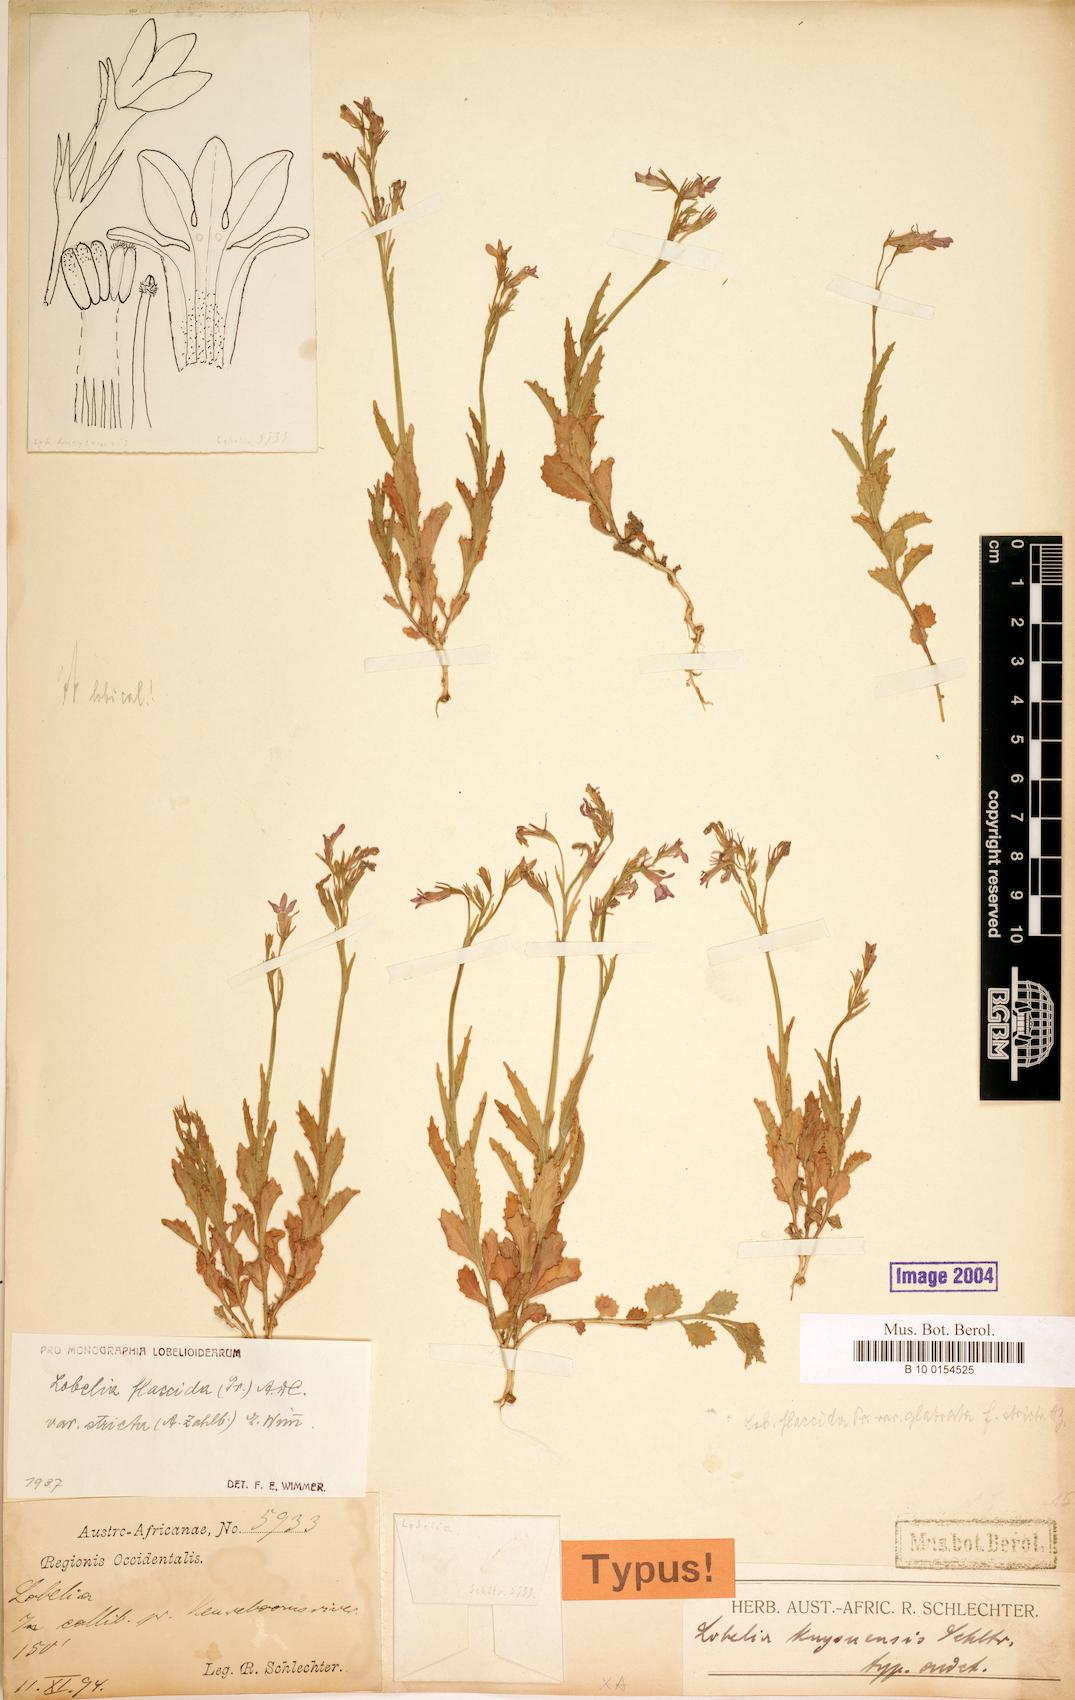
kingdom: Plantae
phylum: Tracheophyta
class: Magnoliopsida
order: Asterales
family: Campanulaceae
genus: Lobelia
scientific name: Lobelia flaccida
